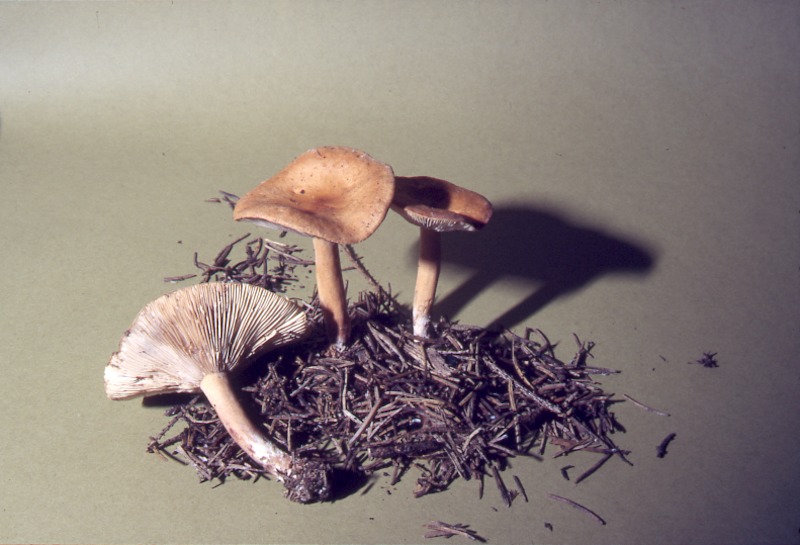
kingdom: Fungi
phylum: Basidiomycota
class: Agaricomycetes
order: Russulales
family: Russulaceae
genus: Lactarius
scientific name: Lactarius aurantiacus
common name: Orange milkcap
